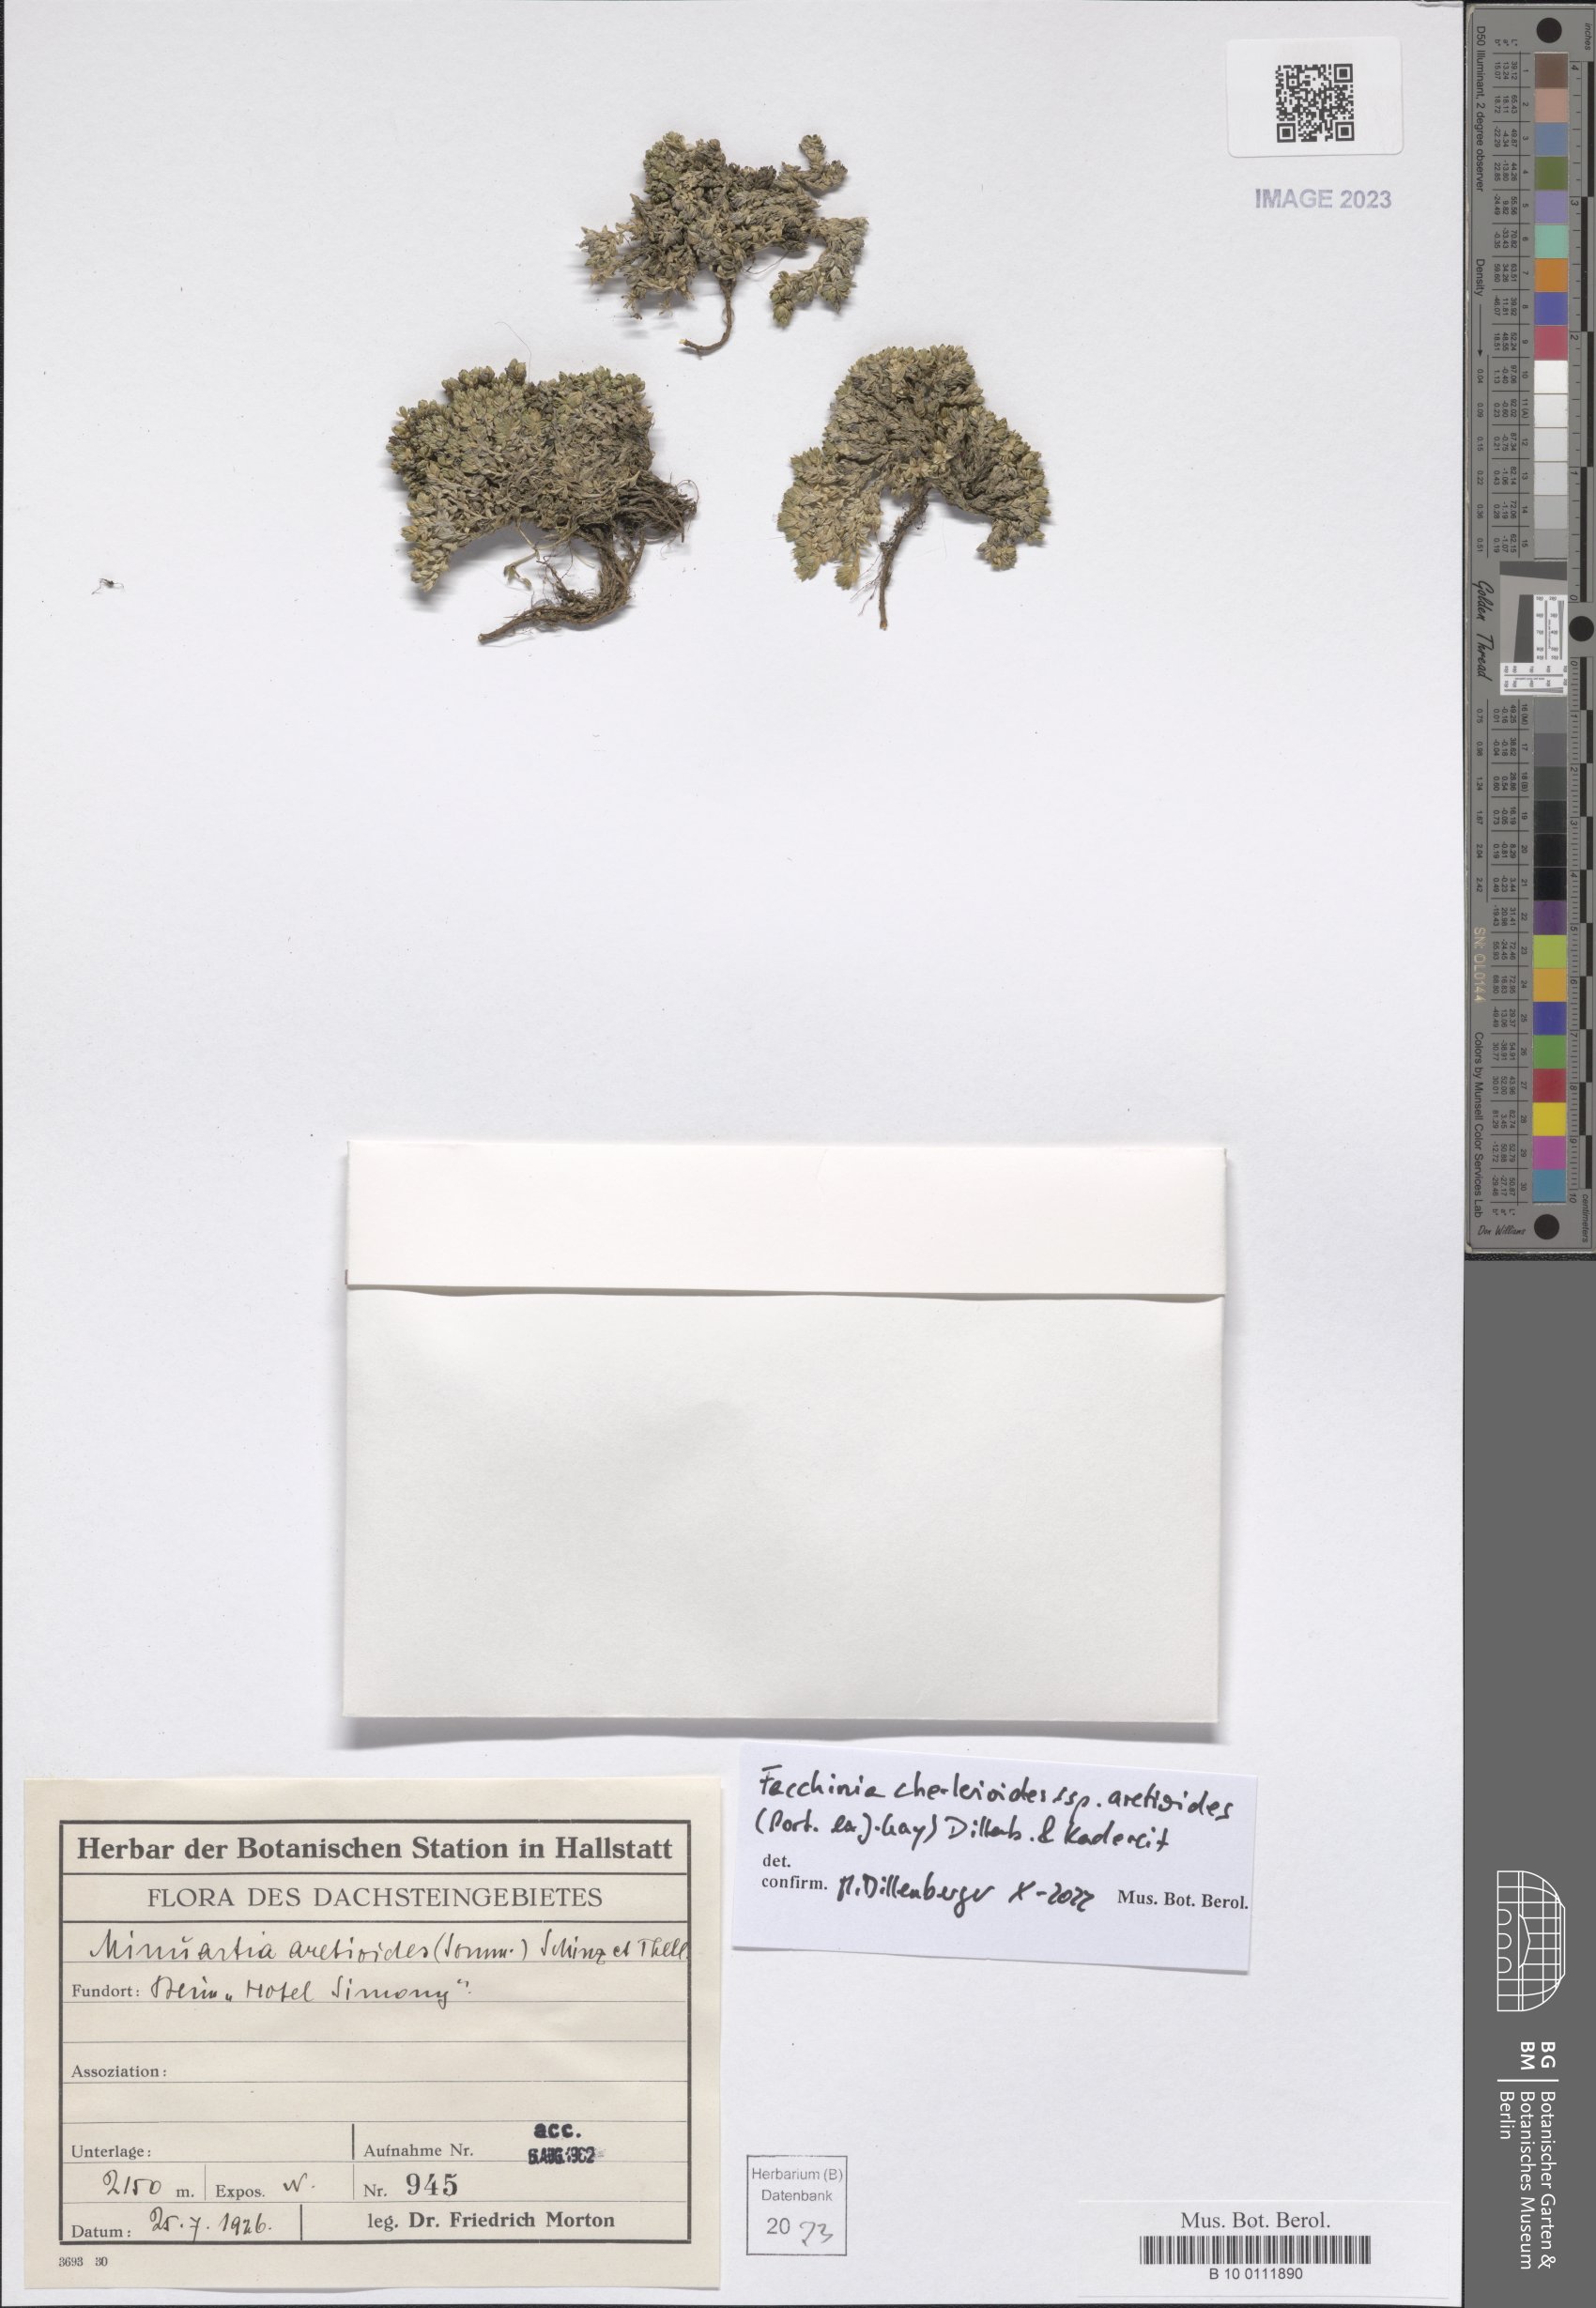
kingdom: Plantae
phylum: Tracheophyta
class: Magnoliopsida
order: Caryophyllales
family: Caryophyllaceae
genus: Facchinia
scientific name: Facchinia cherlerioides
